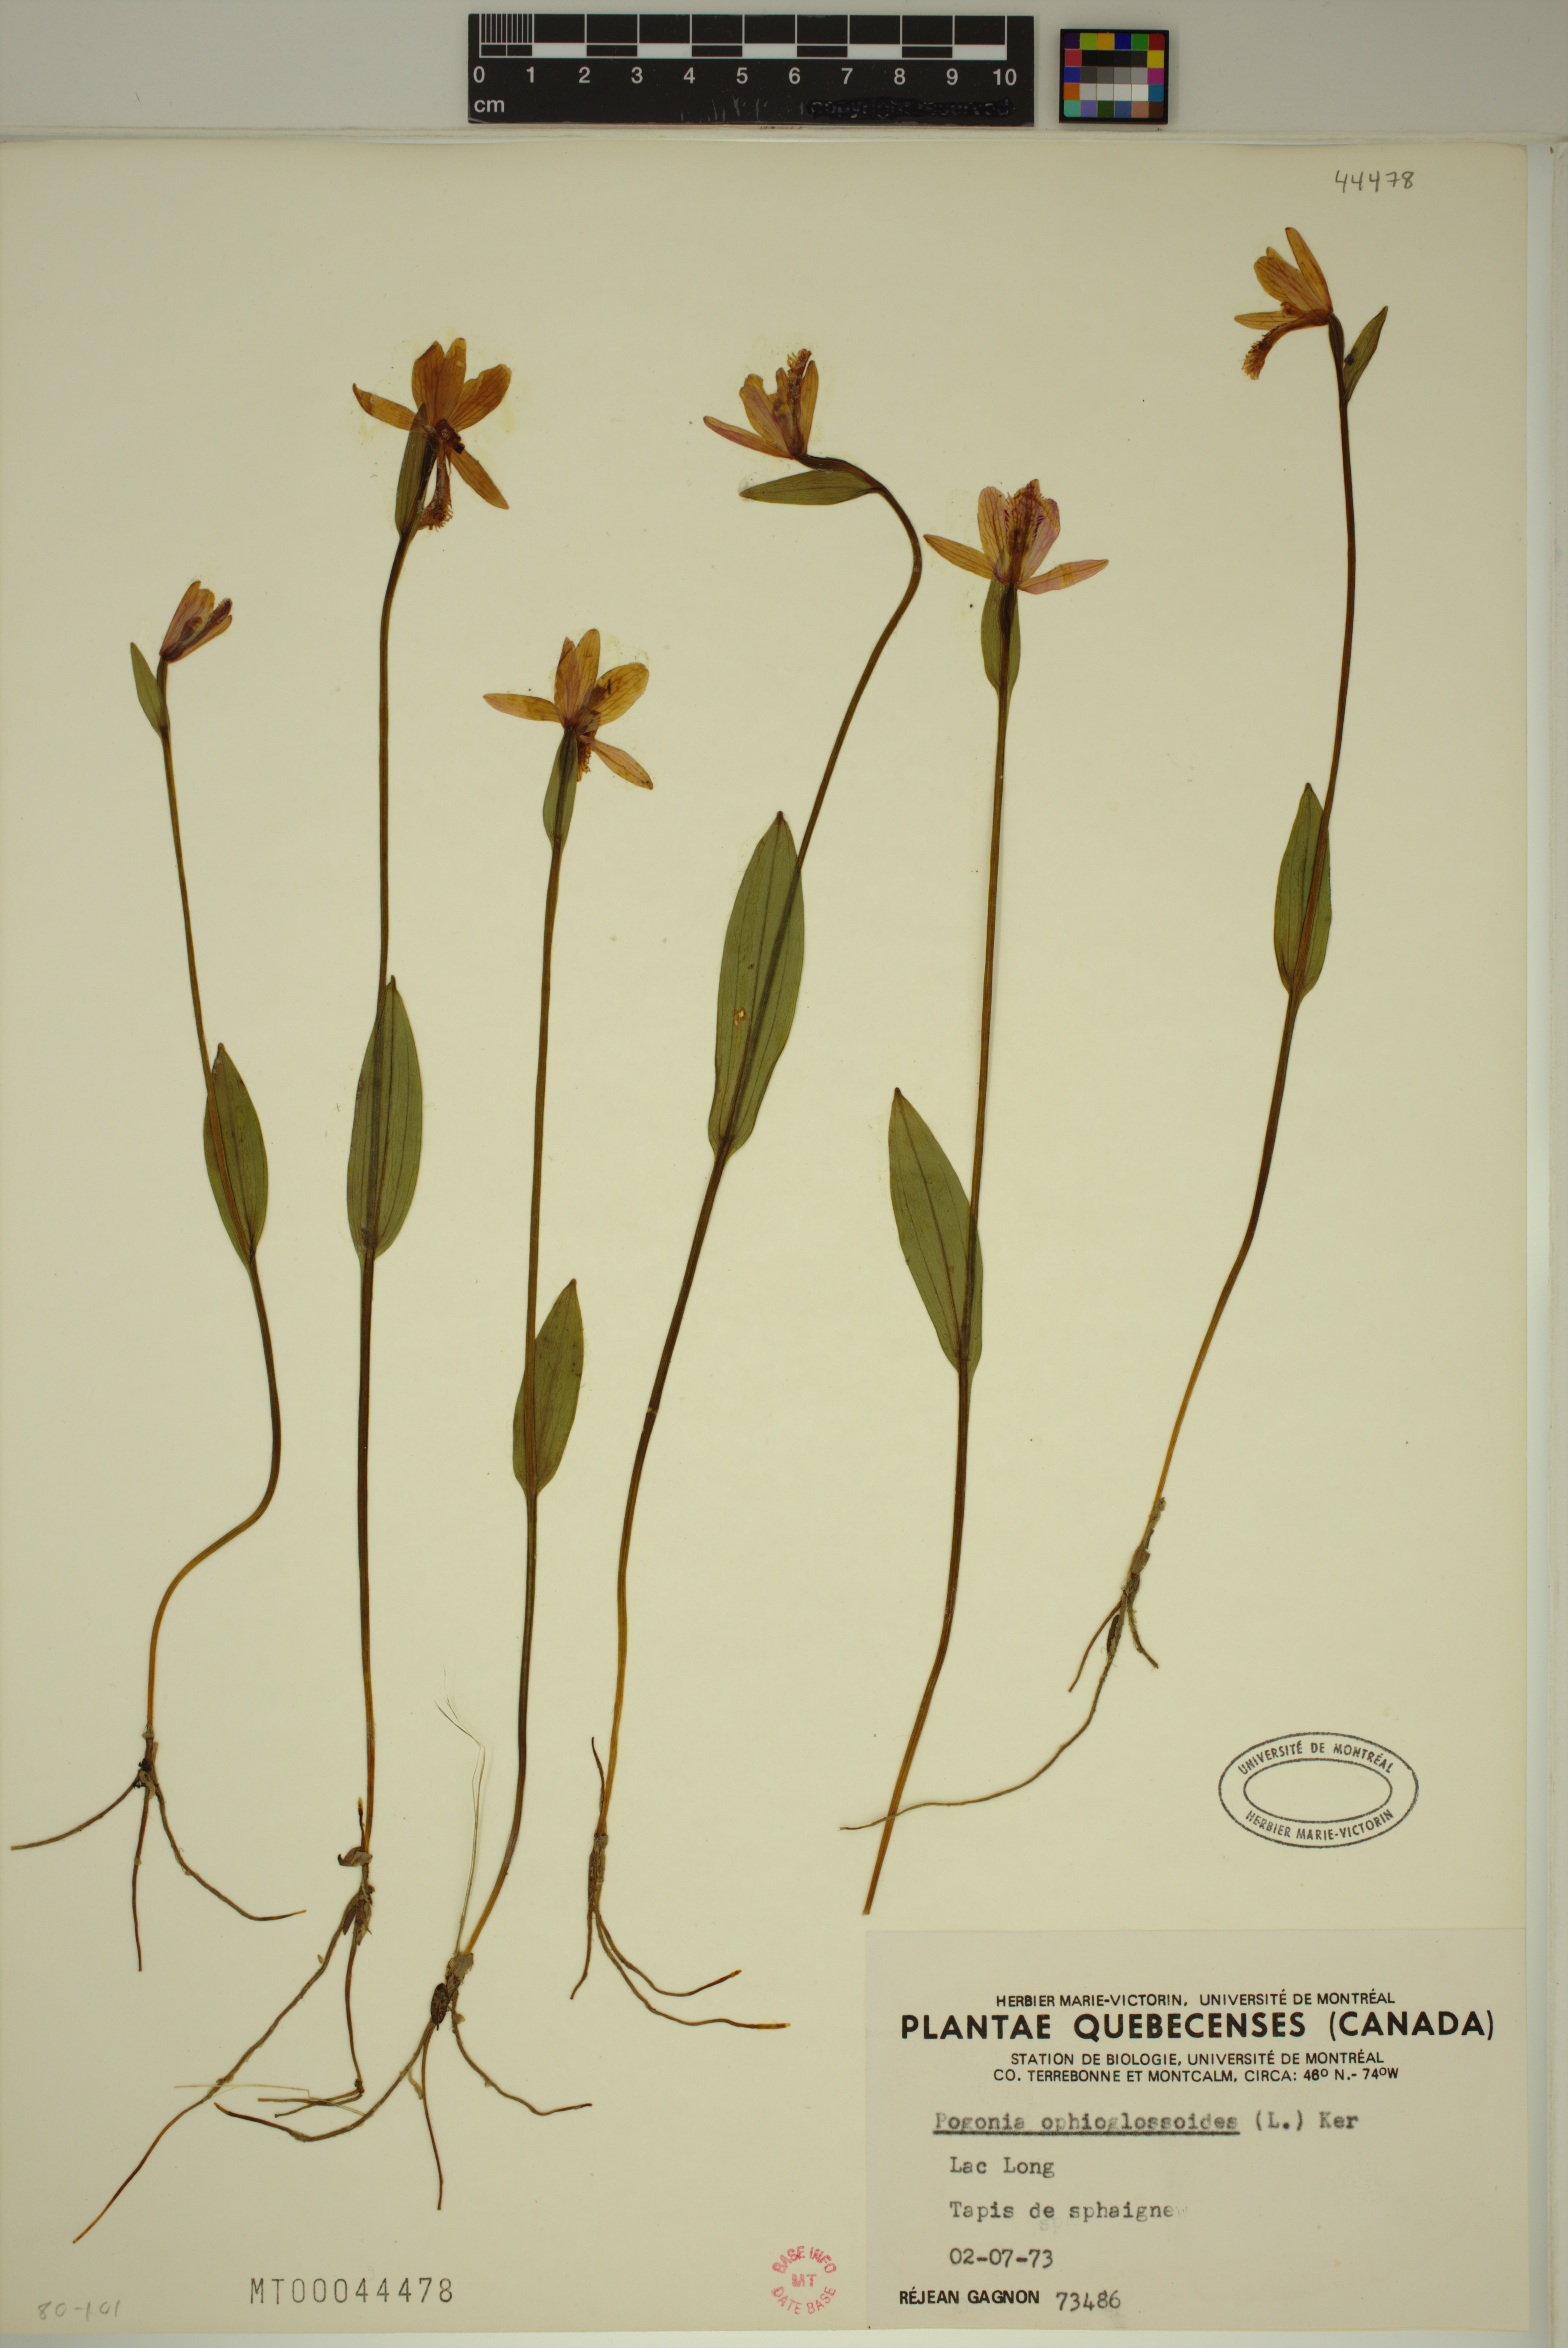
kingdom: Plantae
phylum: Tracheophyta
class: Liliopsida
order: Asparagales
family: Orchidaceae
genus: Pogonia
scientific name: Pogonia ophioglossoides
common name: Rose pogonia
